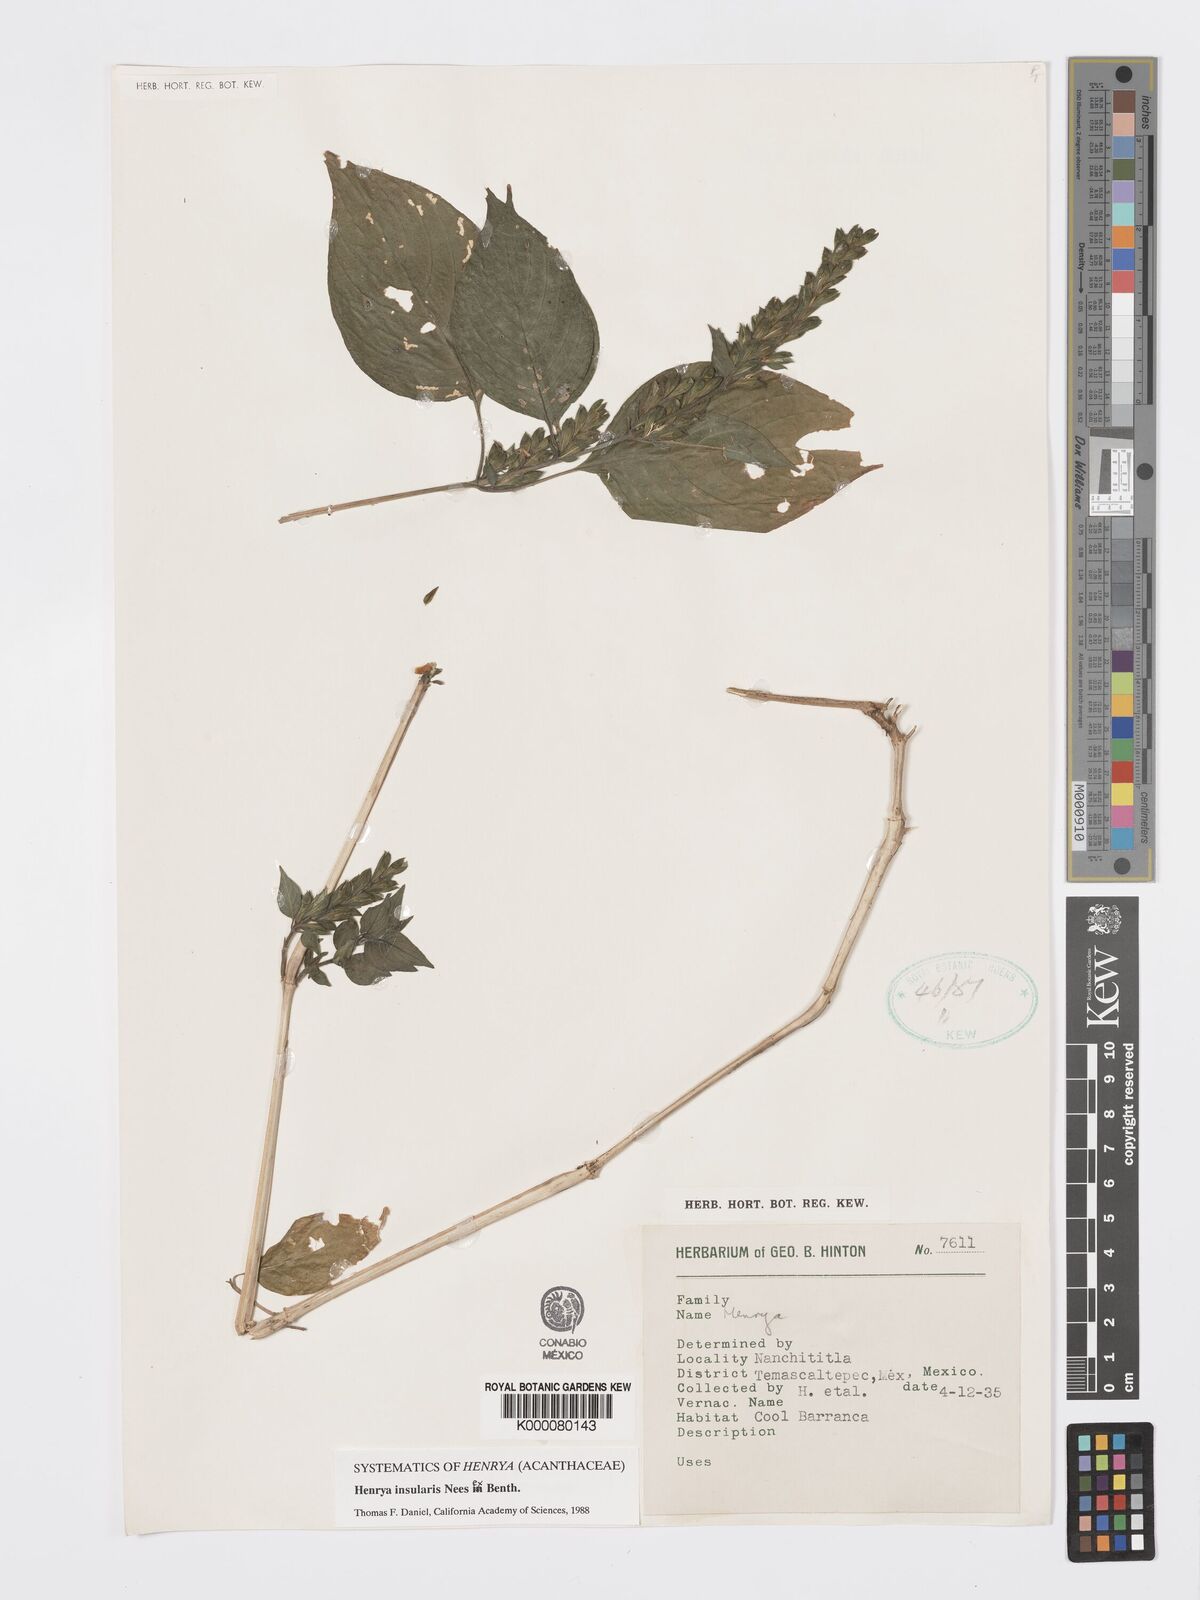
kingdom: Plantae
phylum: Tracheophyta
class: Magnoliopsida
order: Lamiales
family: Acanthaceae
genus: Henrya
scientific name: Henrya
